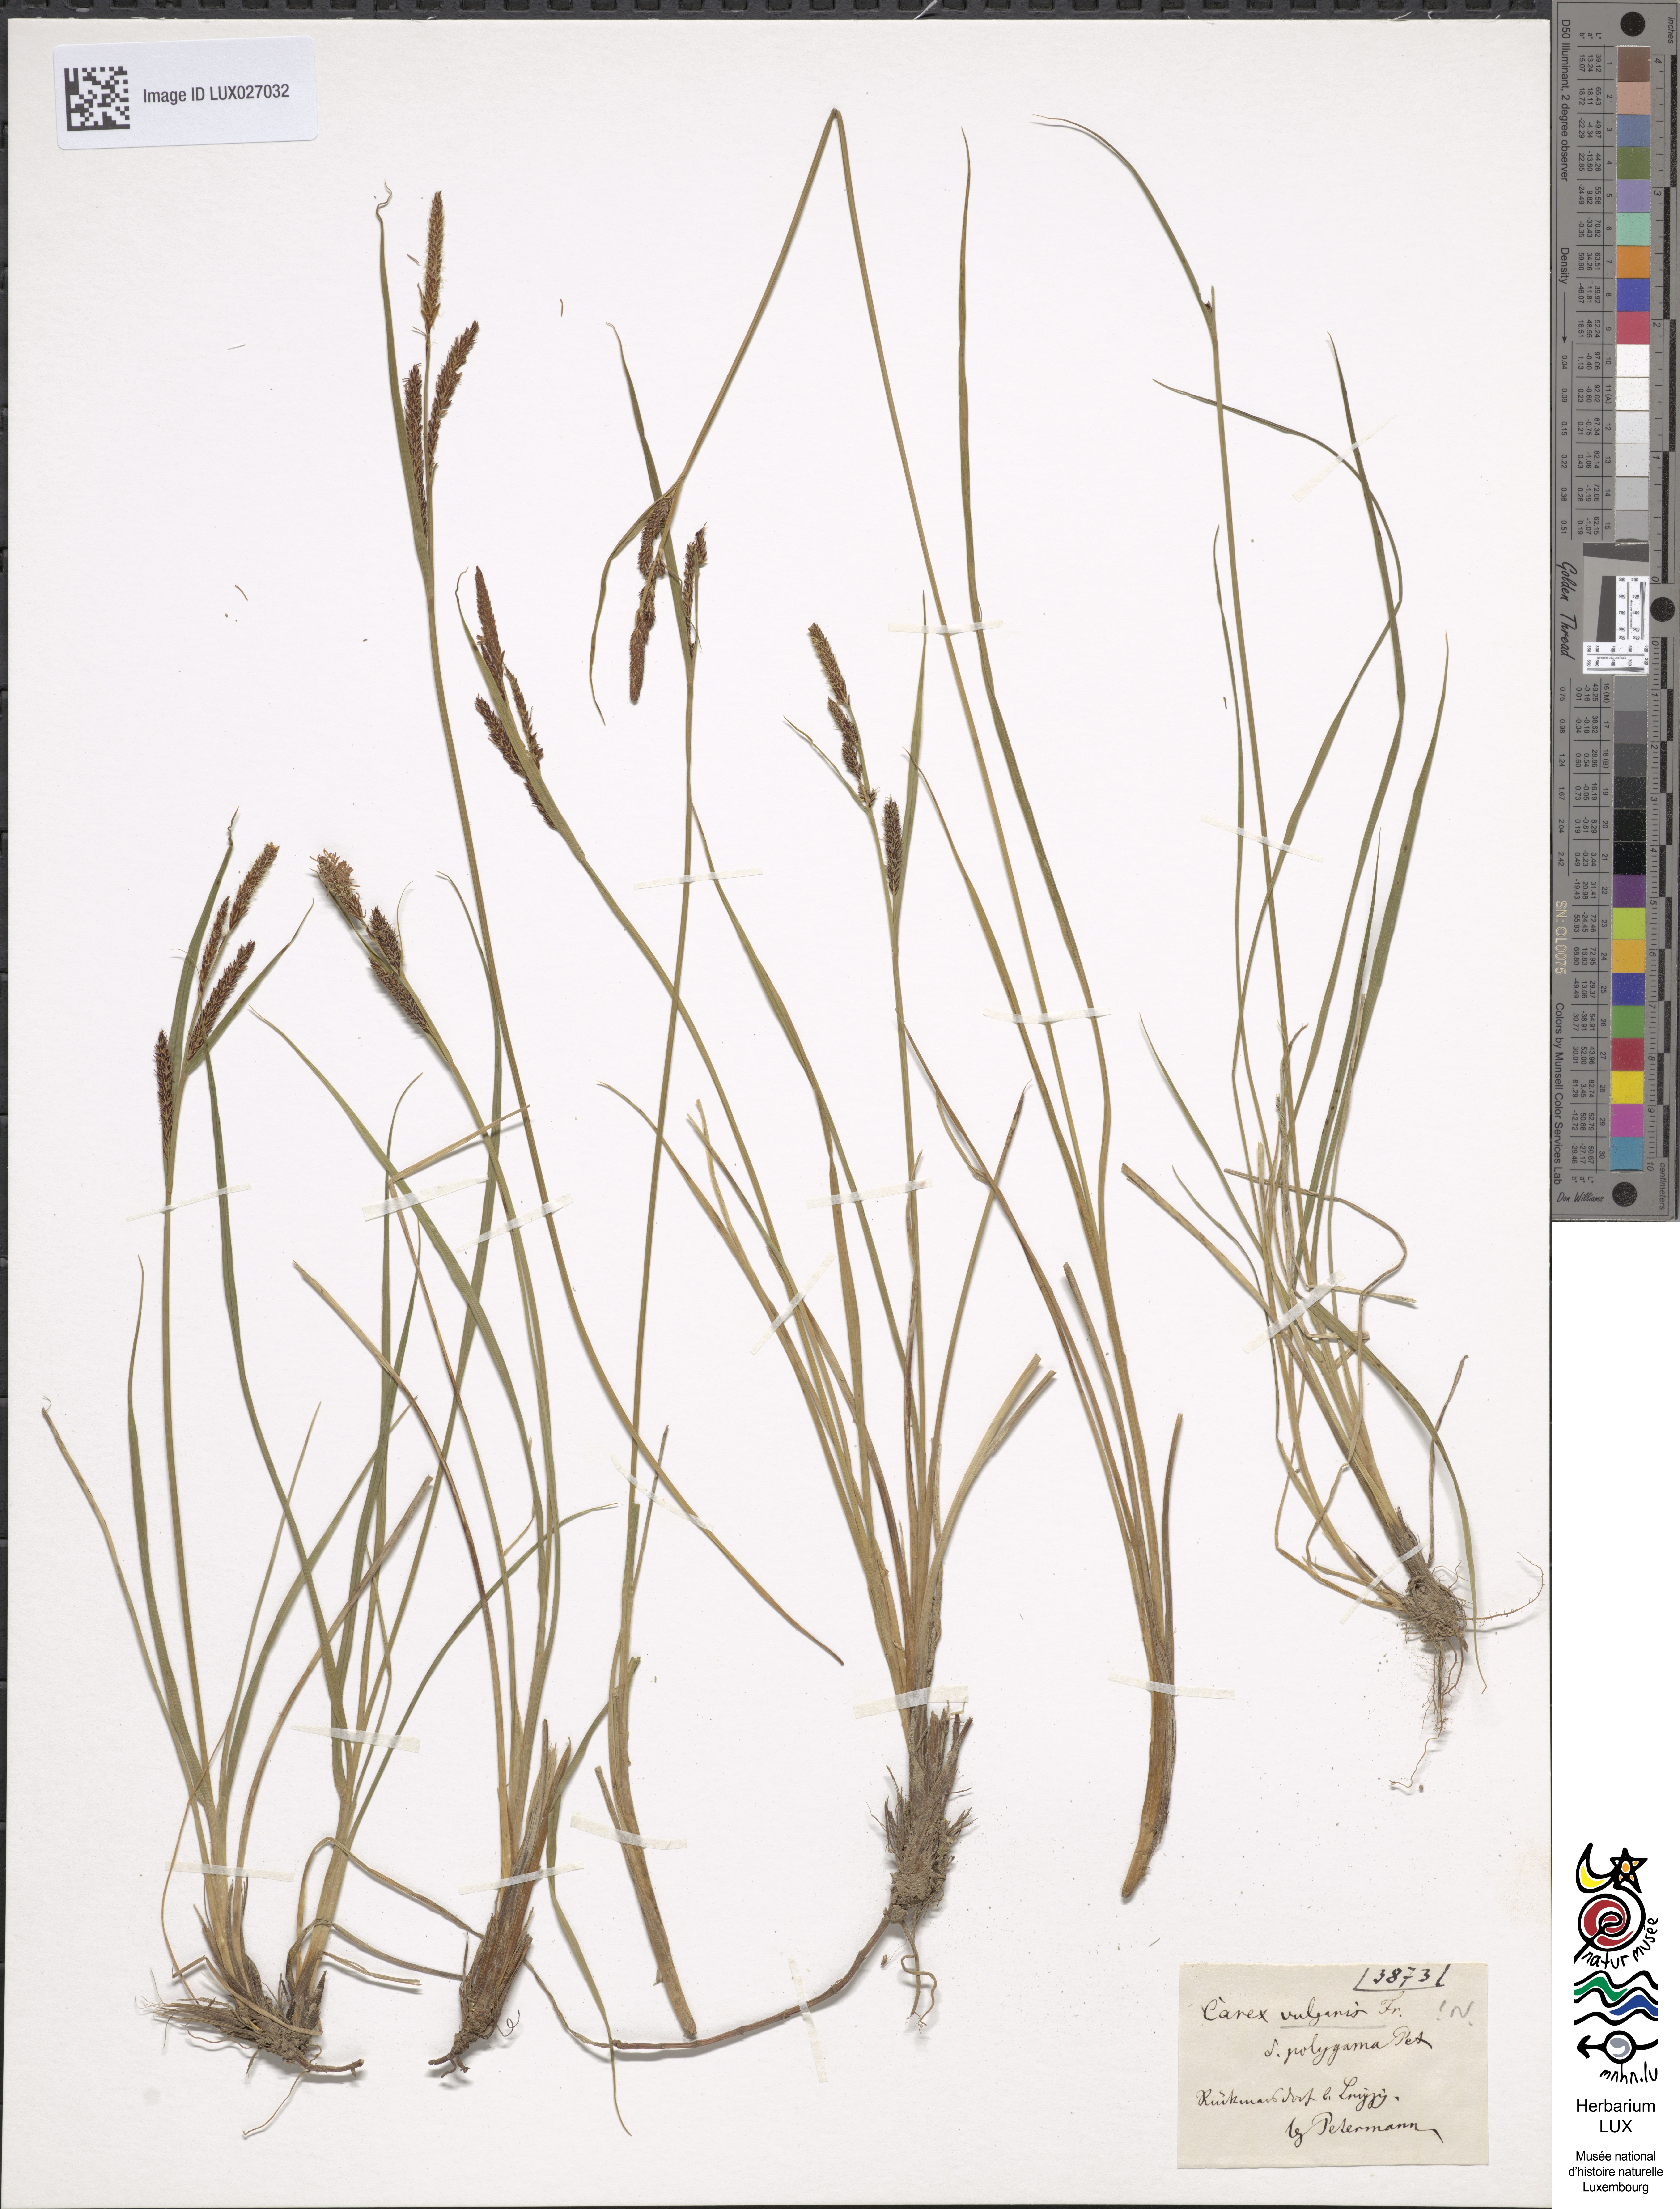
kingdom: Plantae
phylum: Tracheophyta
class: Liliopsida
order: Poales
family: Cyperaceae
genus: Carex
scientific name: Carex nigra
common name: Common sedge
